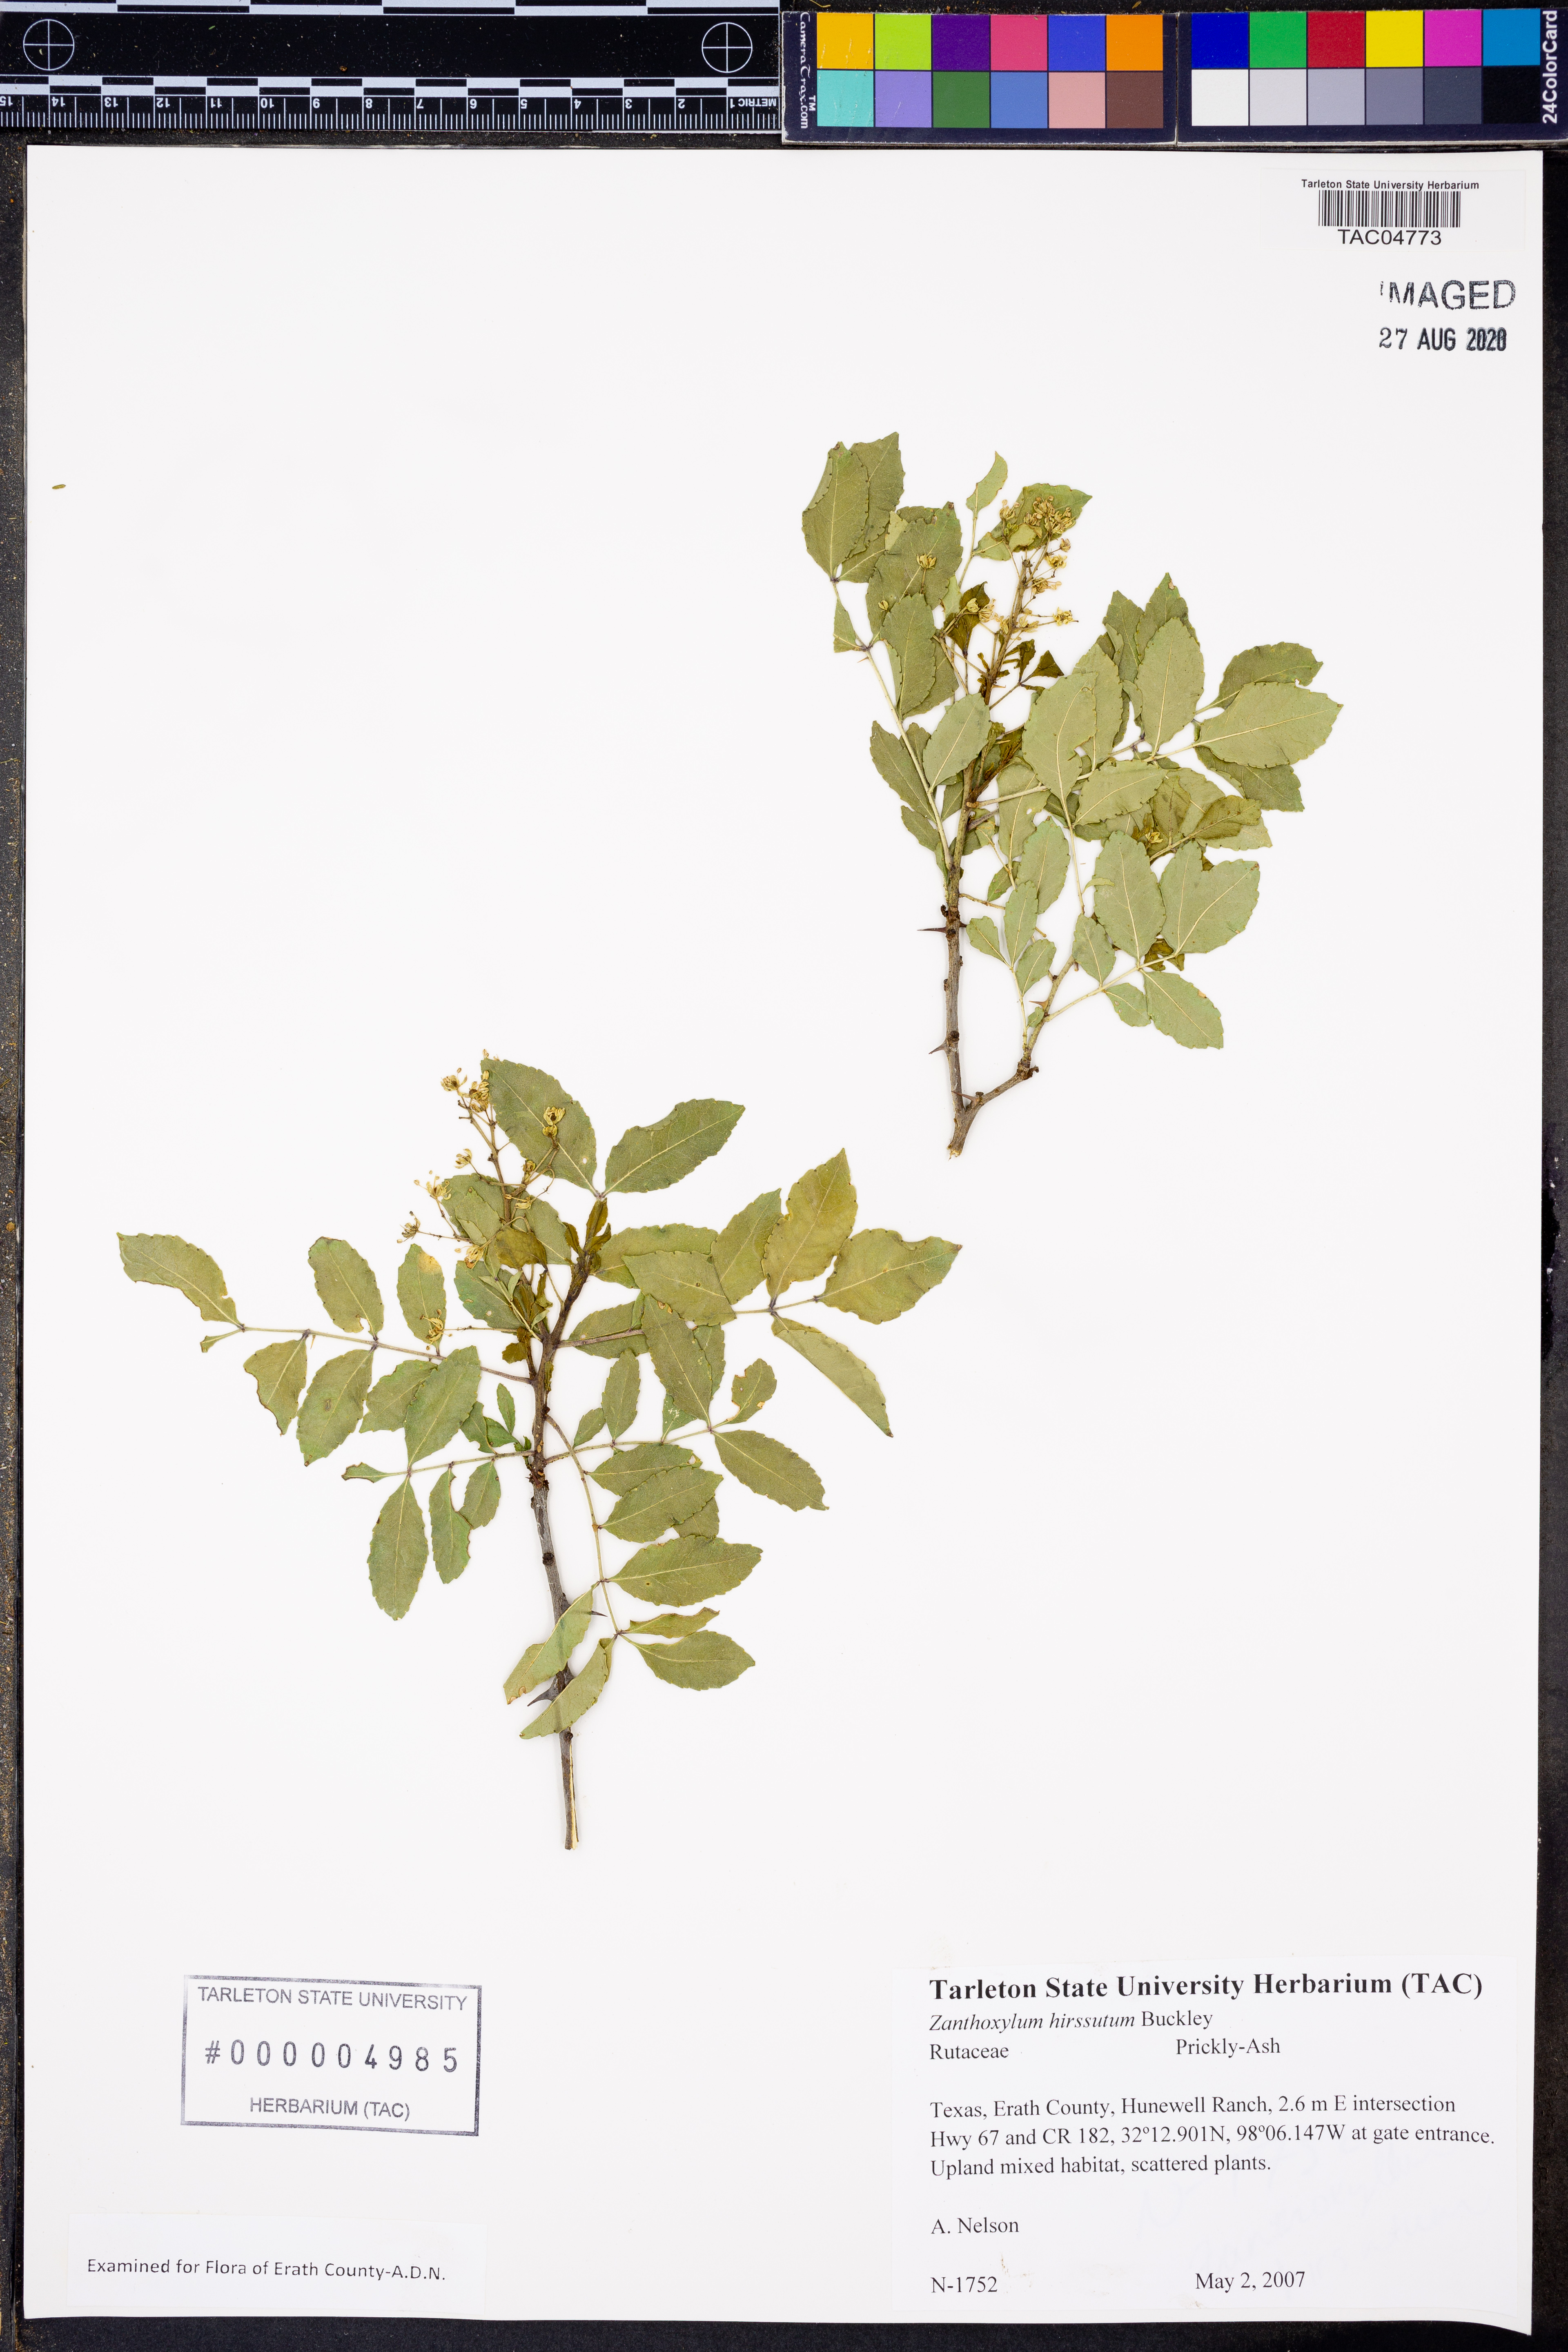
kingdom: Plantae
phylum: Tracheophyta
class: Magnoliopsida
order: Sapindales
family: Rutaceae
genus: Zanthoxylum
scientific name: Zanthoxylum clava-herculis
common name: Hercules'-club
